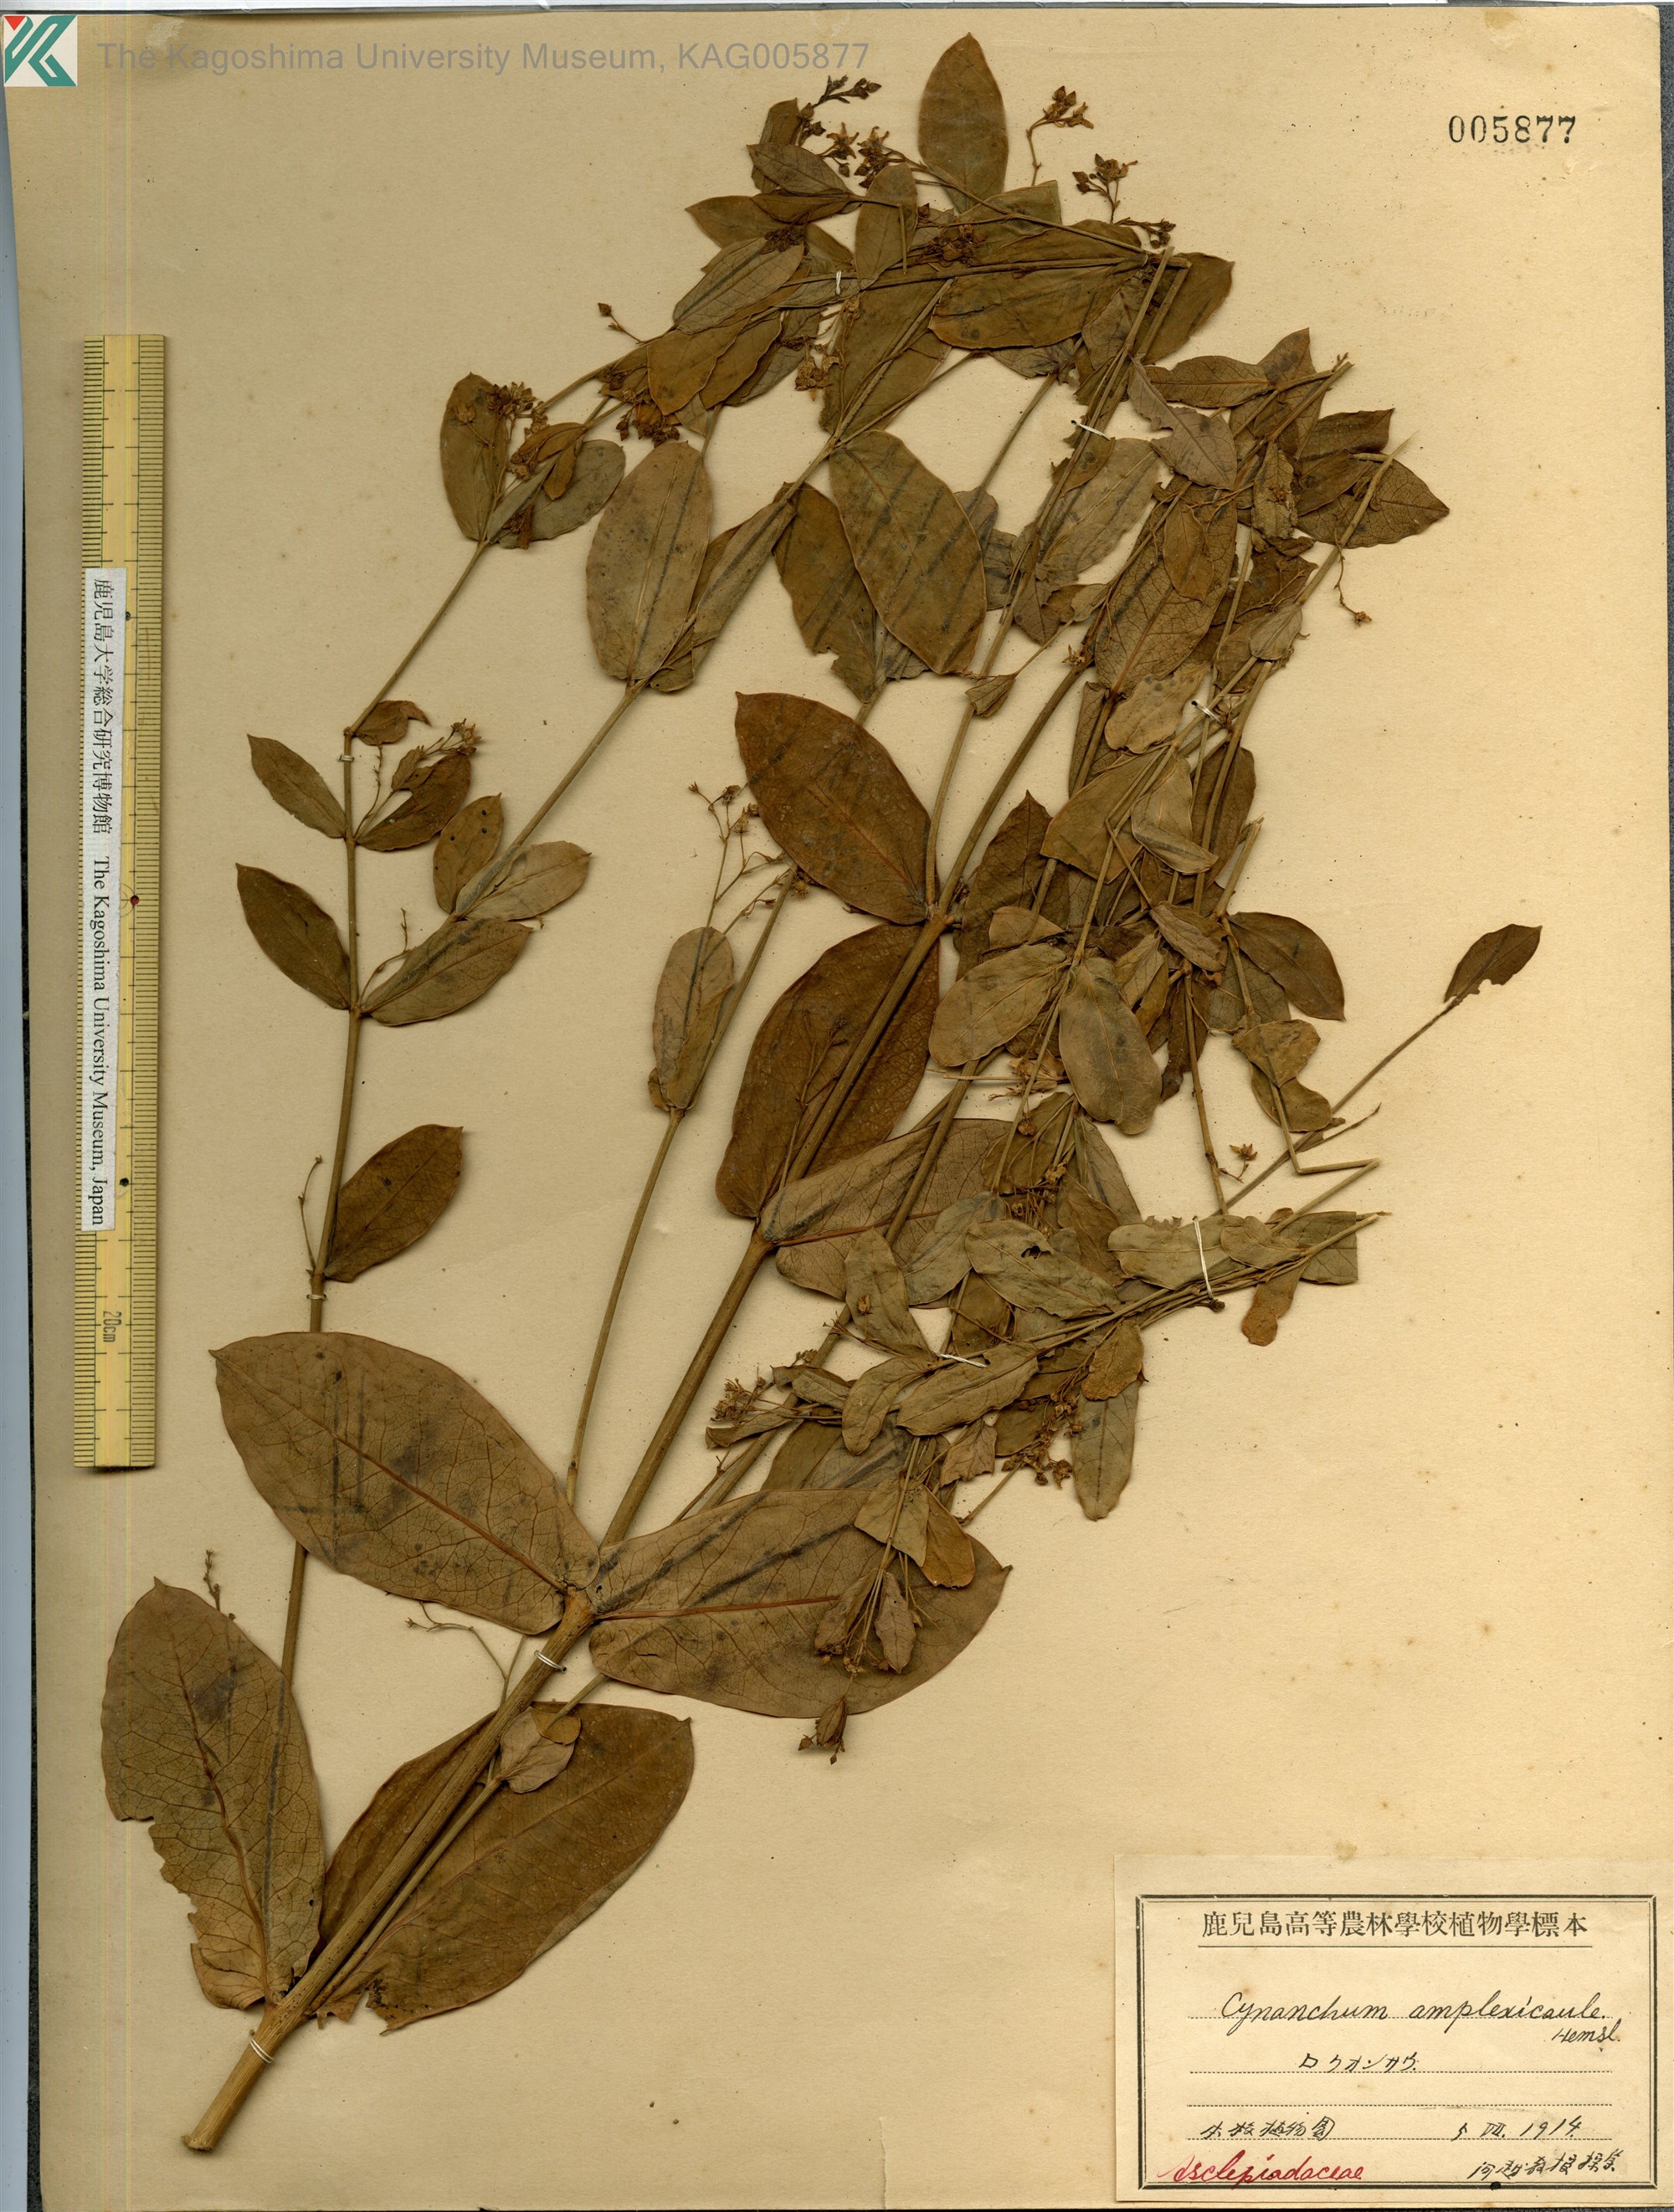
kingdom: Plantae
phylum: Tracheophyta
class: Magnoliopsida
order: Gentianales
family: Apocynaceae
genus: Vincetoxicum
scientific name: Vincetoxicum amplexicaule
